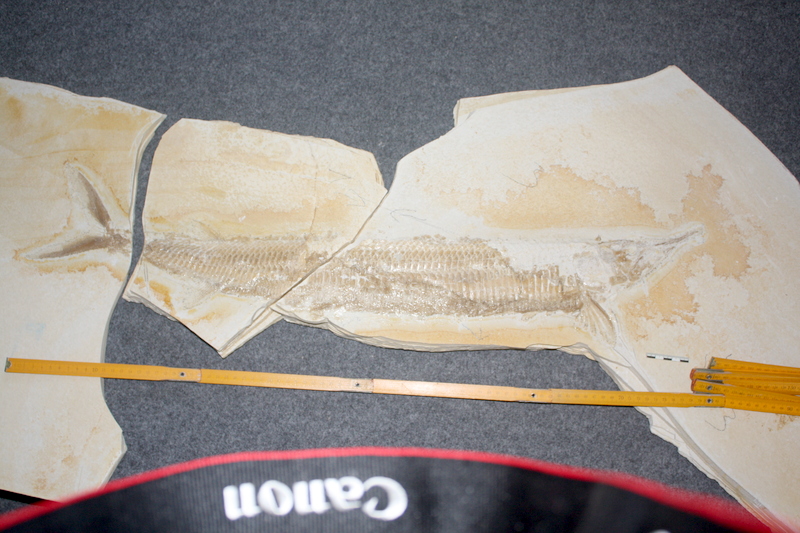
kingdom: Animalia
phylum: Chordata
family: Aspidorhynchidae
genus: Aspidorhynchus
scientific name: Aspidorhynchus acutirostris
